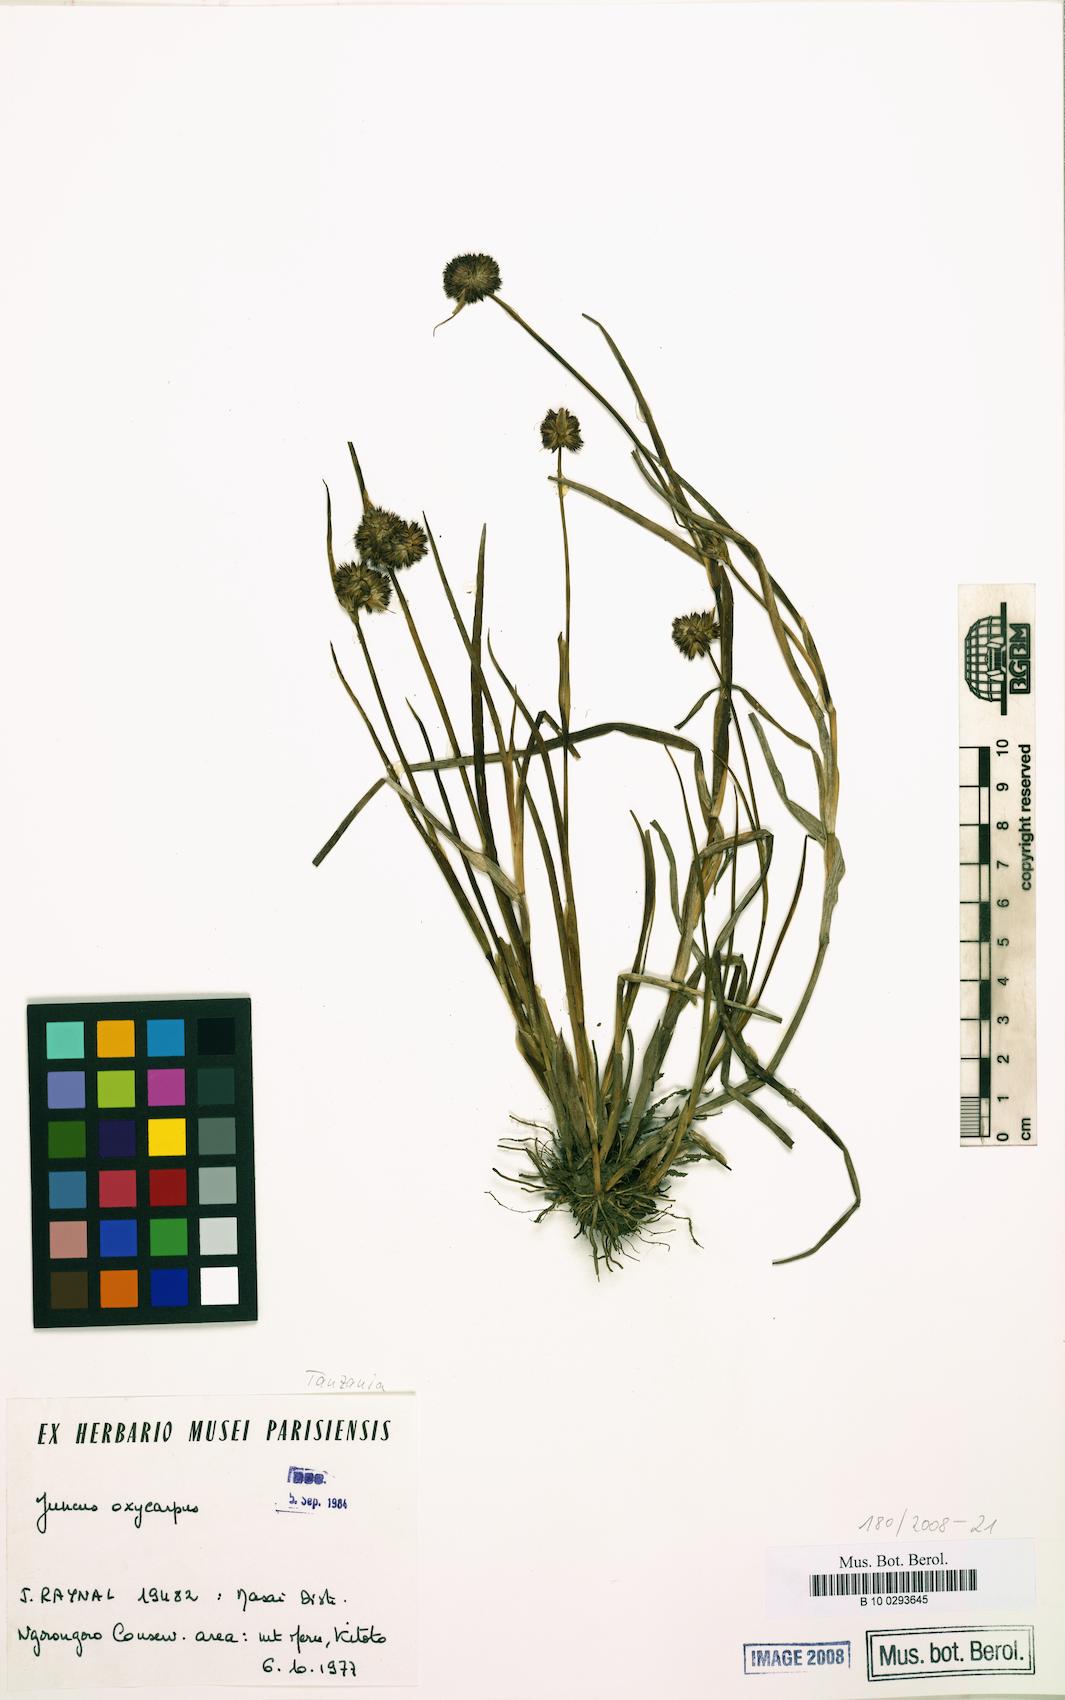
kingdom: Plantae
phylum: Tracheophyta
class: Liliopsida
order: Poales
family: Juncaceae
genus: Juncus
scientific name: Juncus oxycarpus
